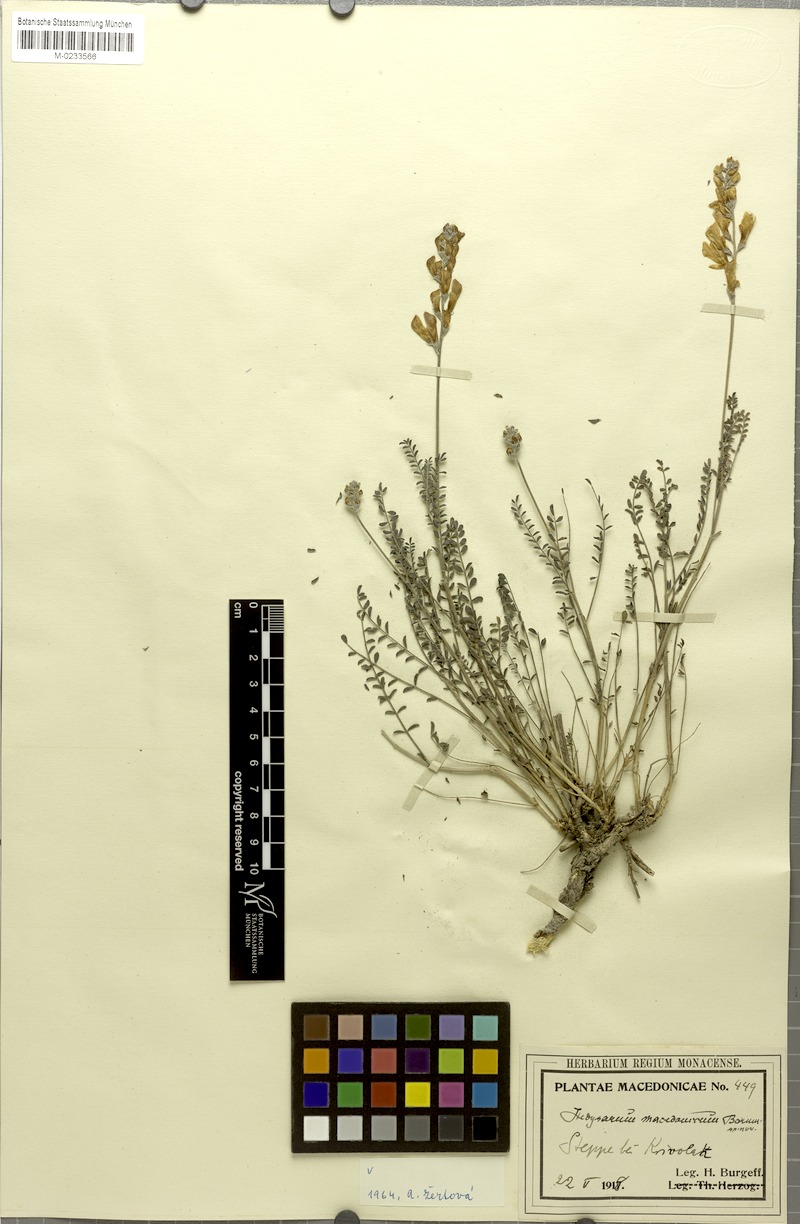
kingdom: Plantae
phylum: Tracheophyta
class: Magnoliopsida
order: Fabales
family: Fabaceae
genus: Hedysarum
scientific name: Hedysarum macedonicum
